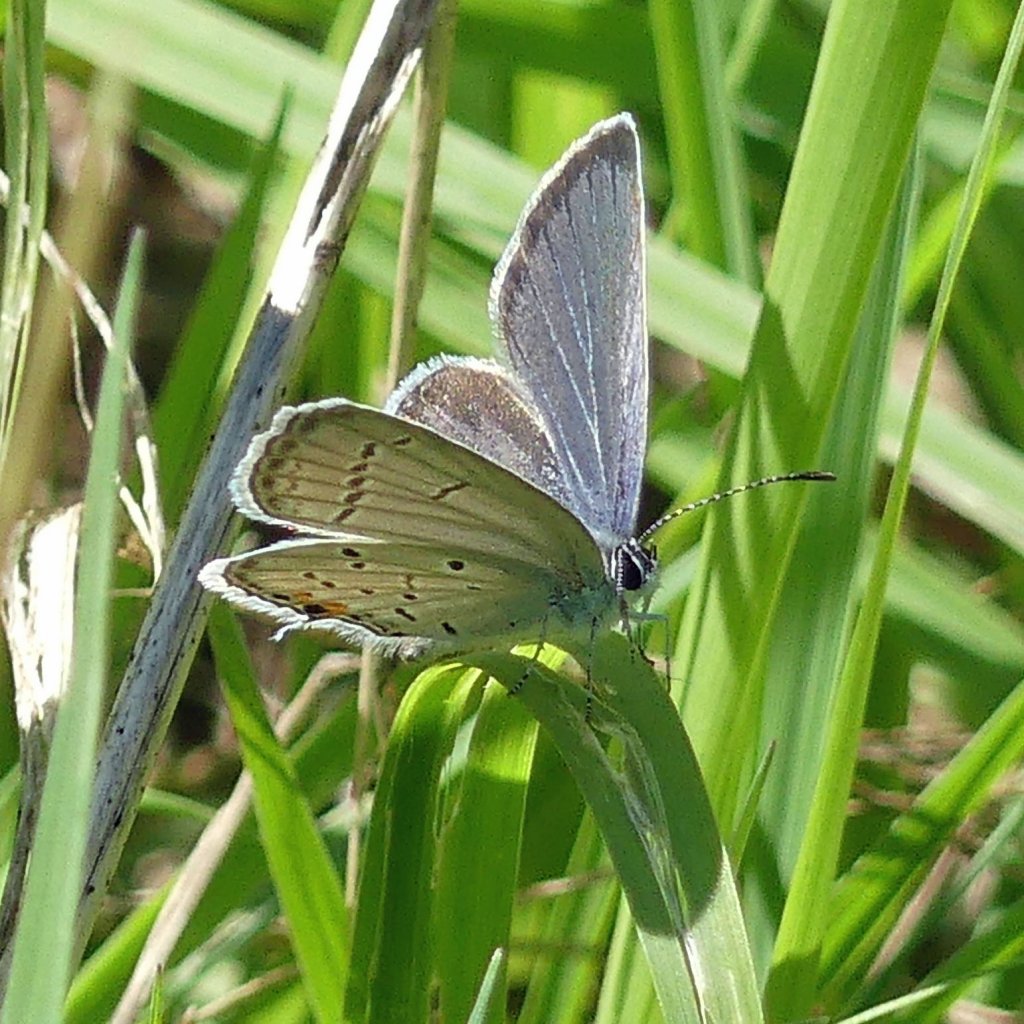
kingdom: Animalia
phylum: Arthropoda
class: Insecta
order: Lepidoptera
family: Lycaenidae
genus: Elkalyce
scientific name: Elkalyce comyntas
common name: Eastern Tailed-Blue
